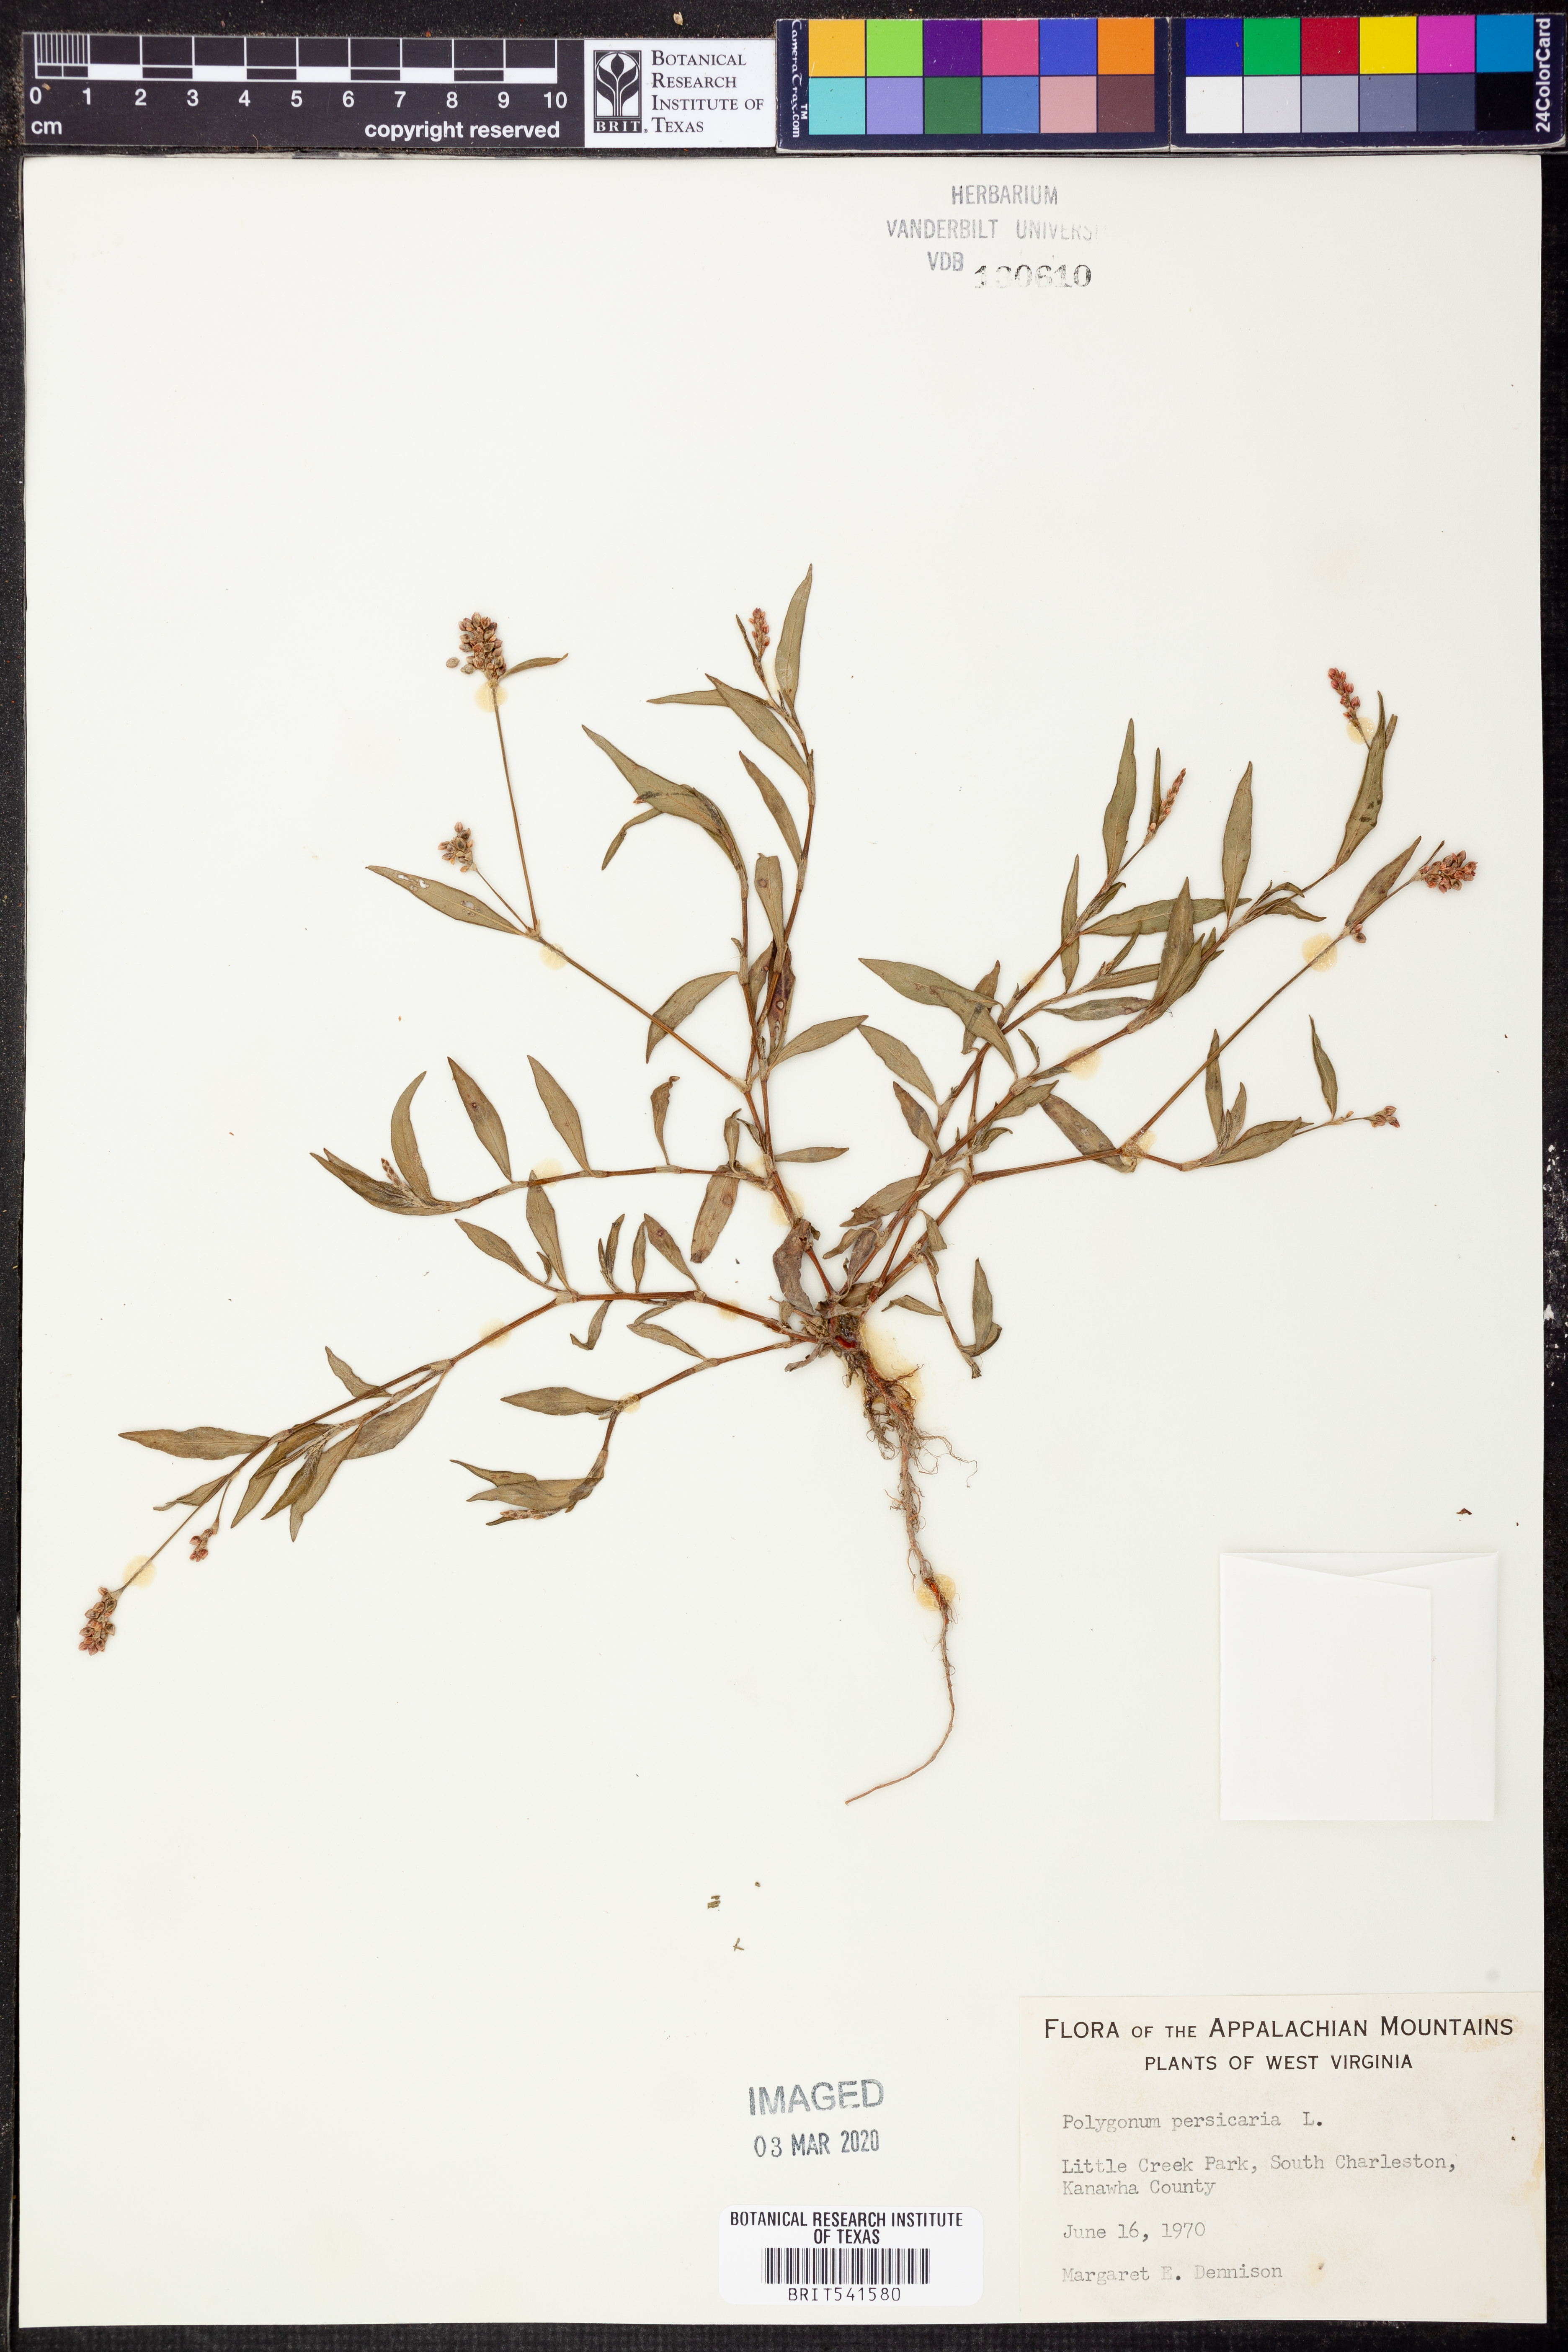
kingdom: Plantae
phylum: Tracheophyta
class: Magnoliopsida
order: Caryophyllales
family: Polygonaceae
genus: Persicaria
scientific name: Persicaria maculosa
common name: Redshank
